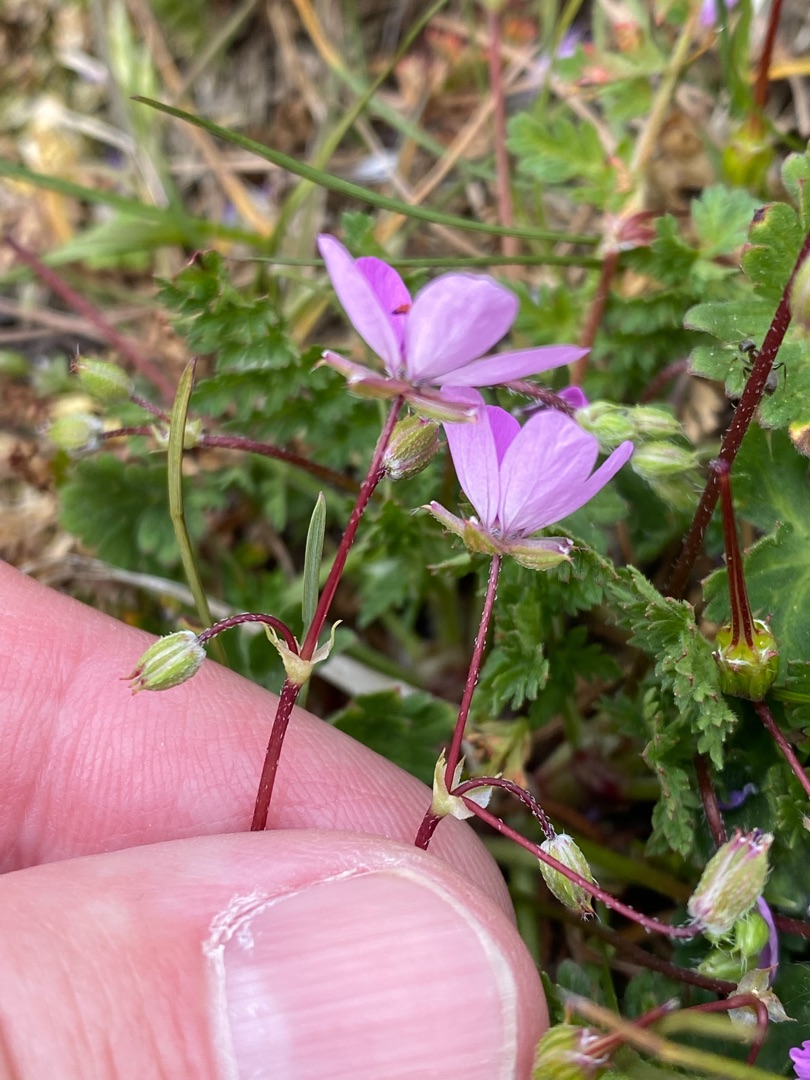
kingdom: Plantae
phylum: Tracheophyta
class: Magnoliopsida
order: Geraniales
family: Geraniaceae
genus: Erodium
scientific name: Erodium cicutarium
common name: Hejrenæb
